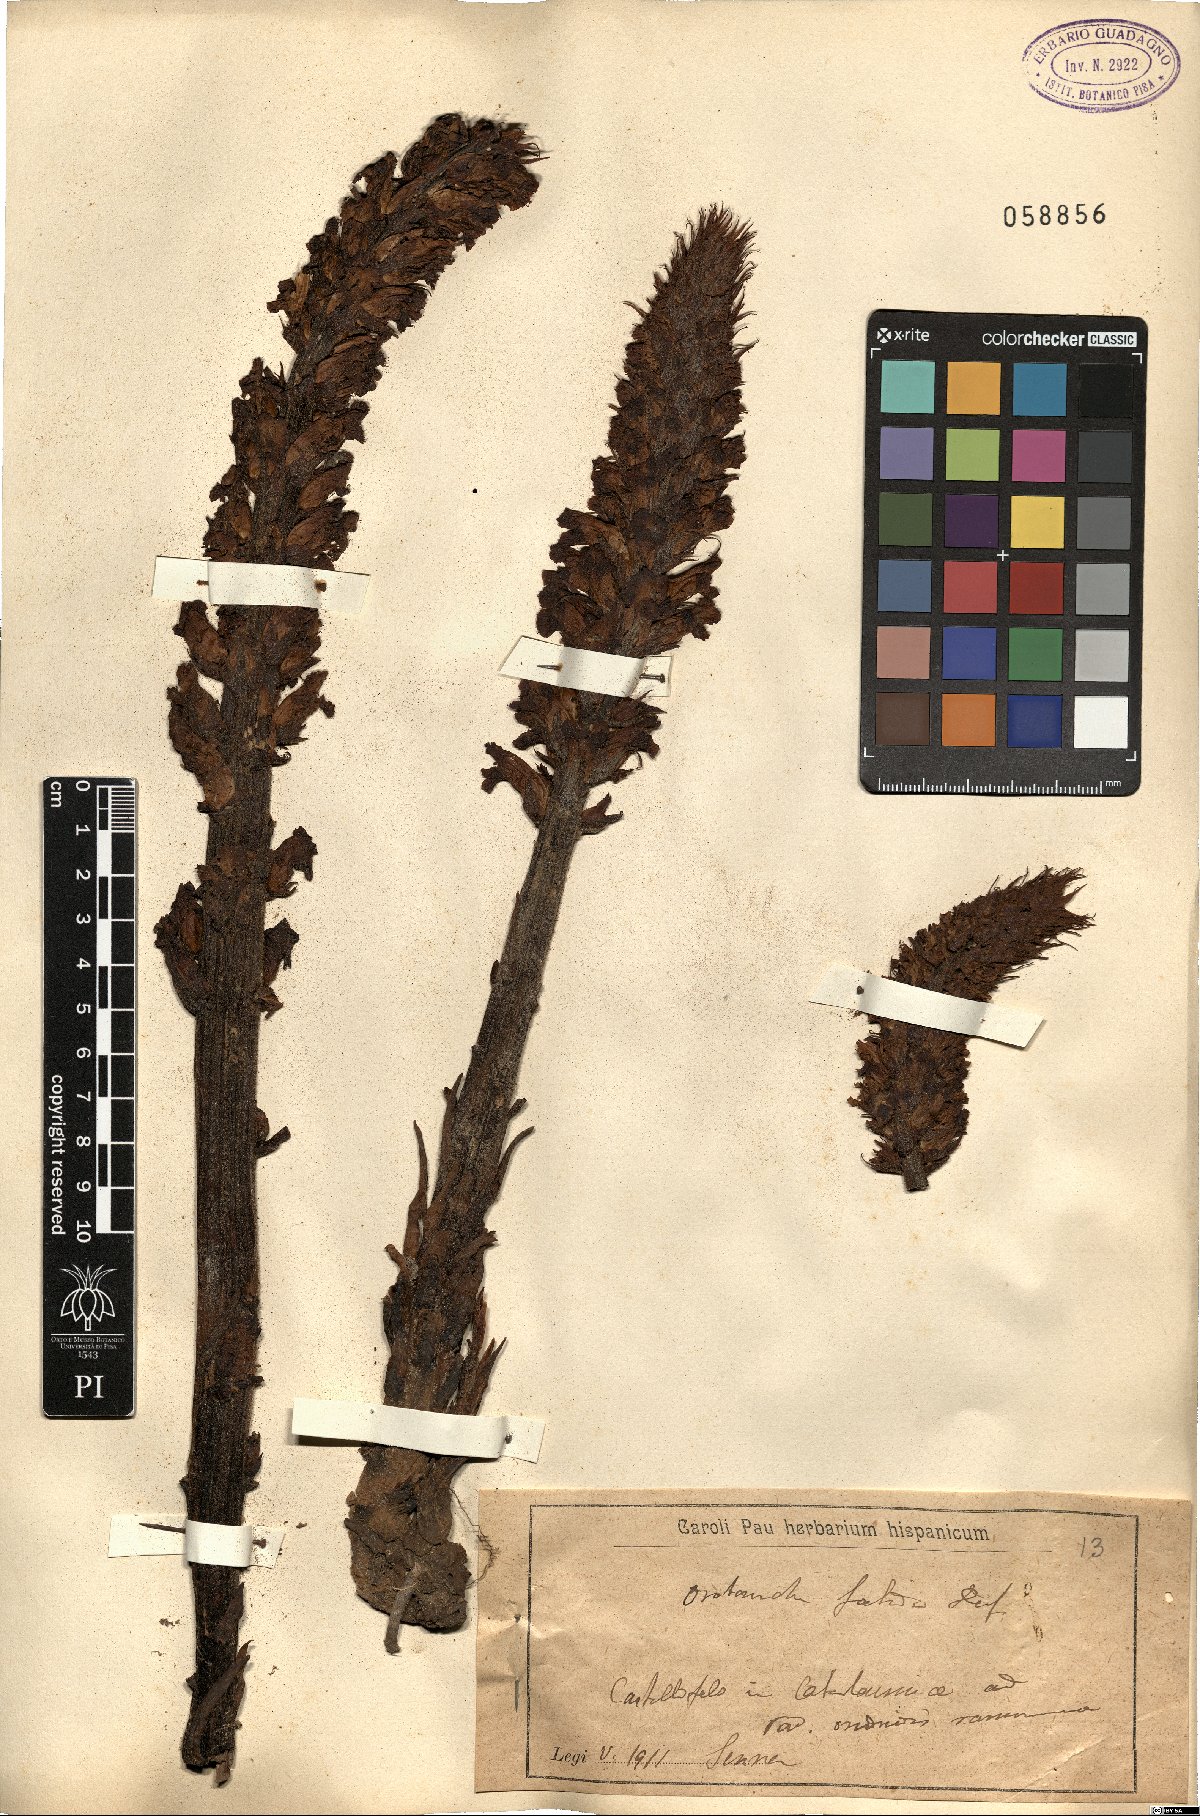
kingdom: Plantae
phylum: Tracheophyta
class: Magnoliopsida
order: Lamiales
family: Orobanchaceae
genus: Orobanche
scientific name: Orobanche foetida
